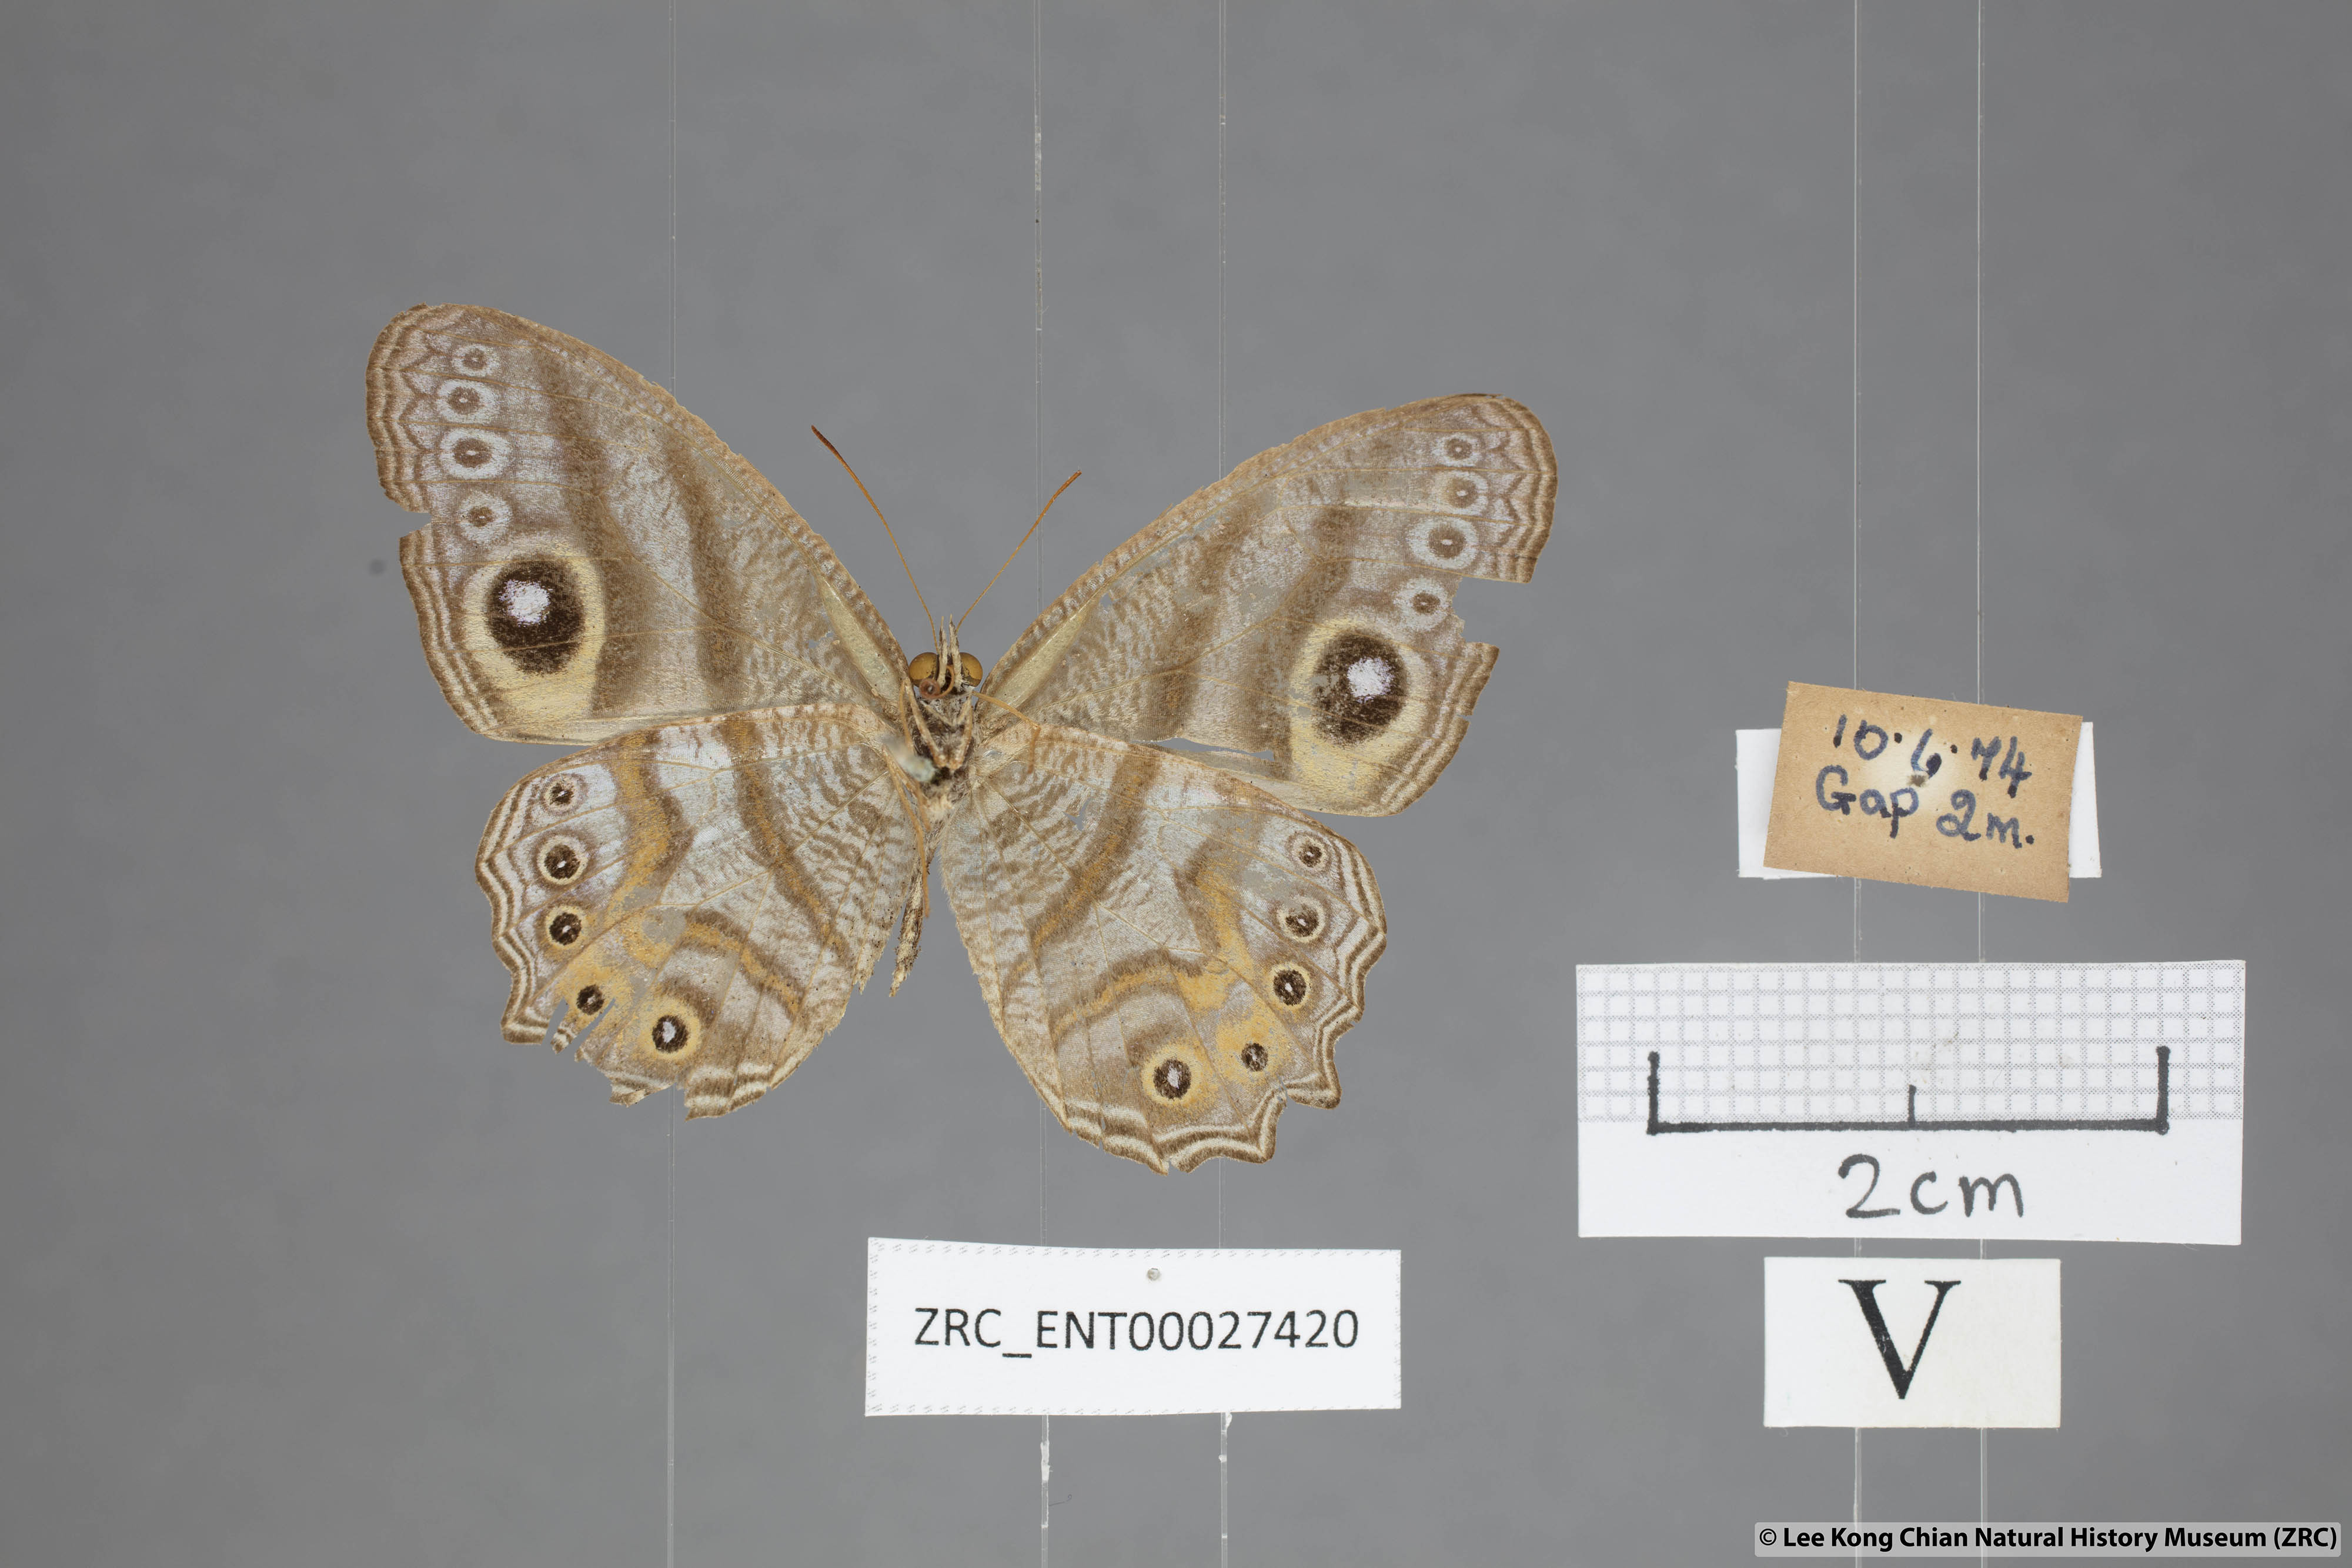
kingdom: Animalia
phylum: Arthropoda
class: Insecta
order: Lepidoptera
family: Nymphalidae
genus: Erites
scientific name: Erites argentina
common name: Eyed cyclops
